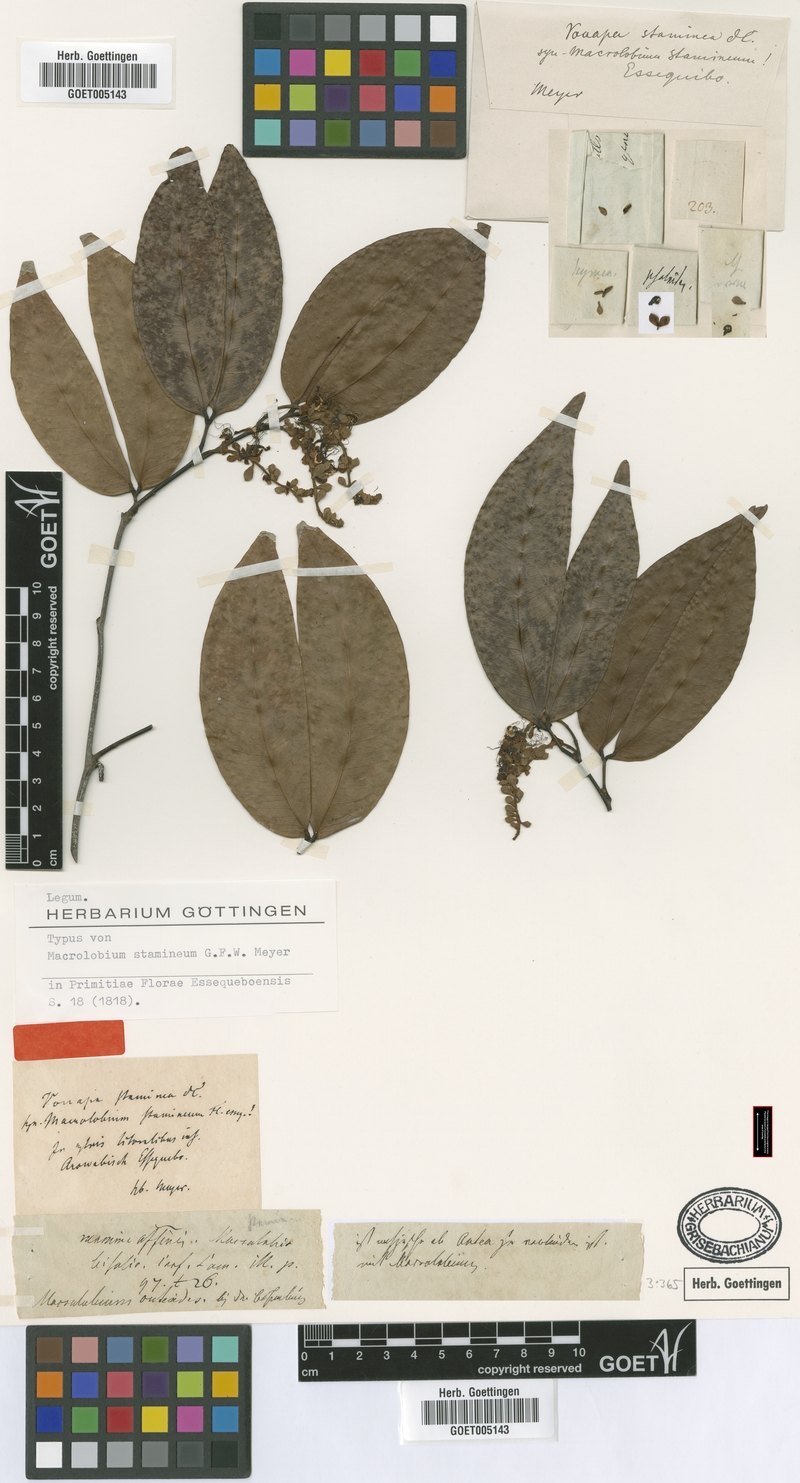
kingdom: Plantae
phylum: Tracheophyta
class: Magnoliopsida
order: Fabales
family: Fabaceae
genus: Macrolobium
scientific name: Macrolobium bifolium
